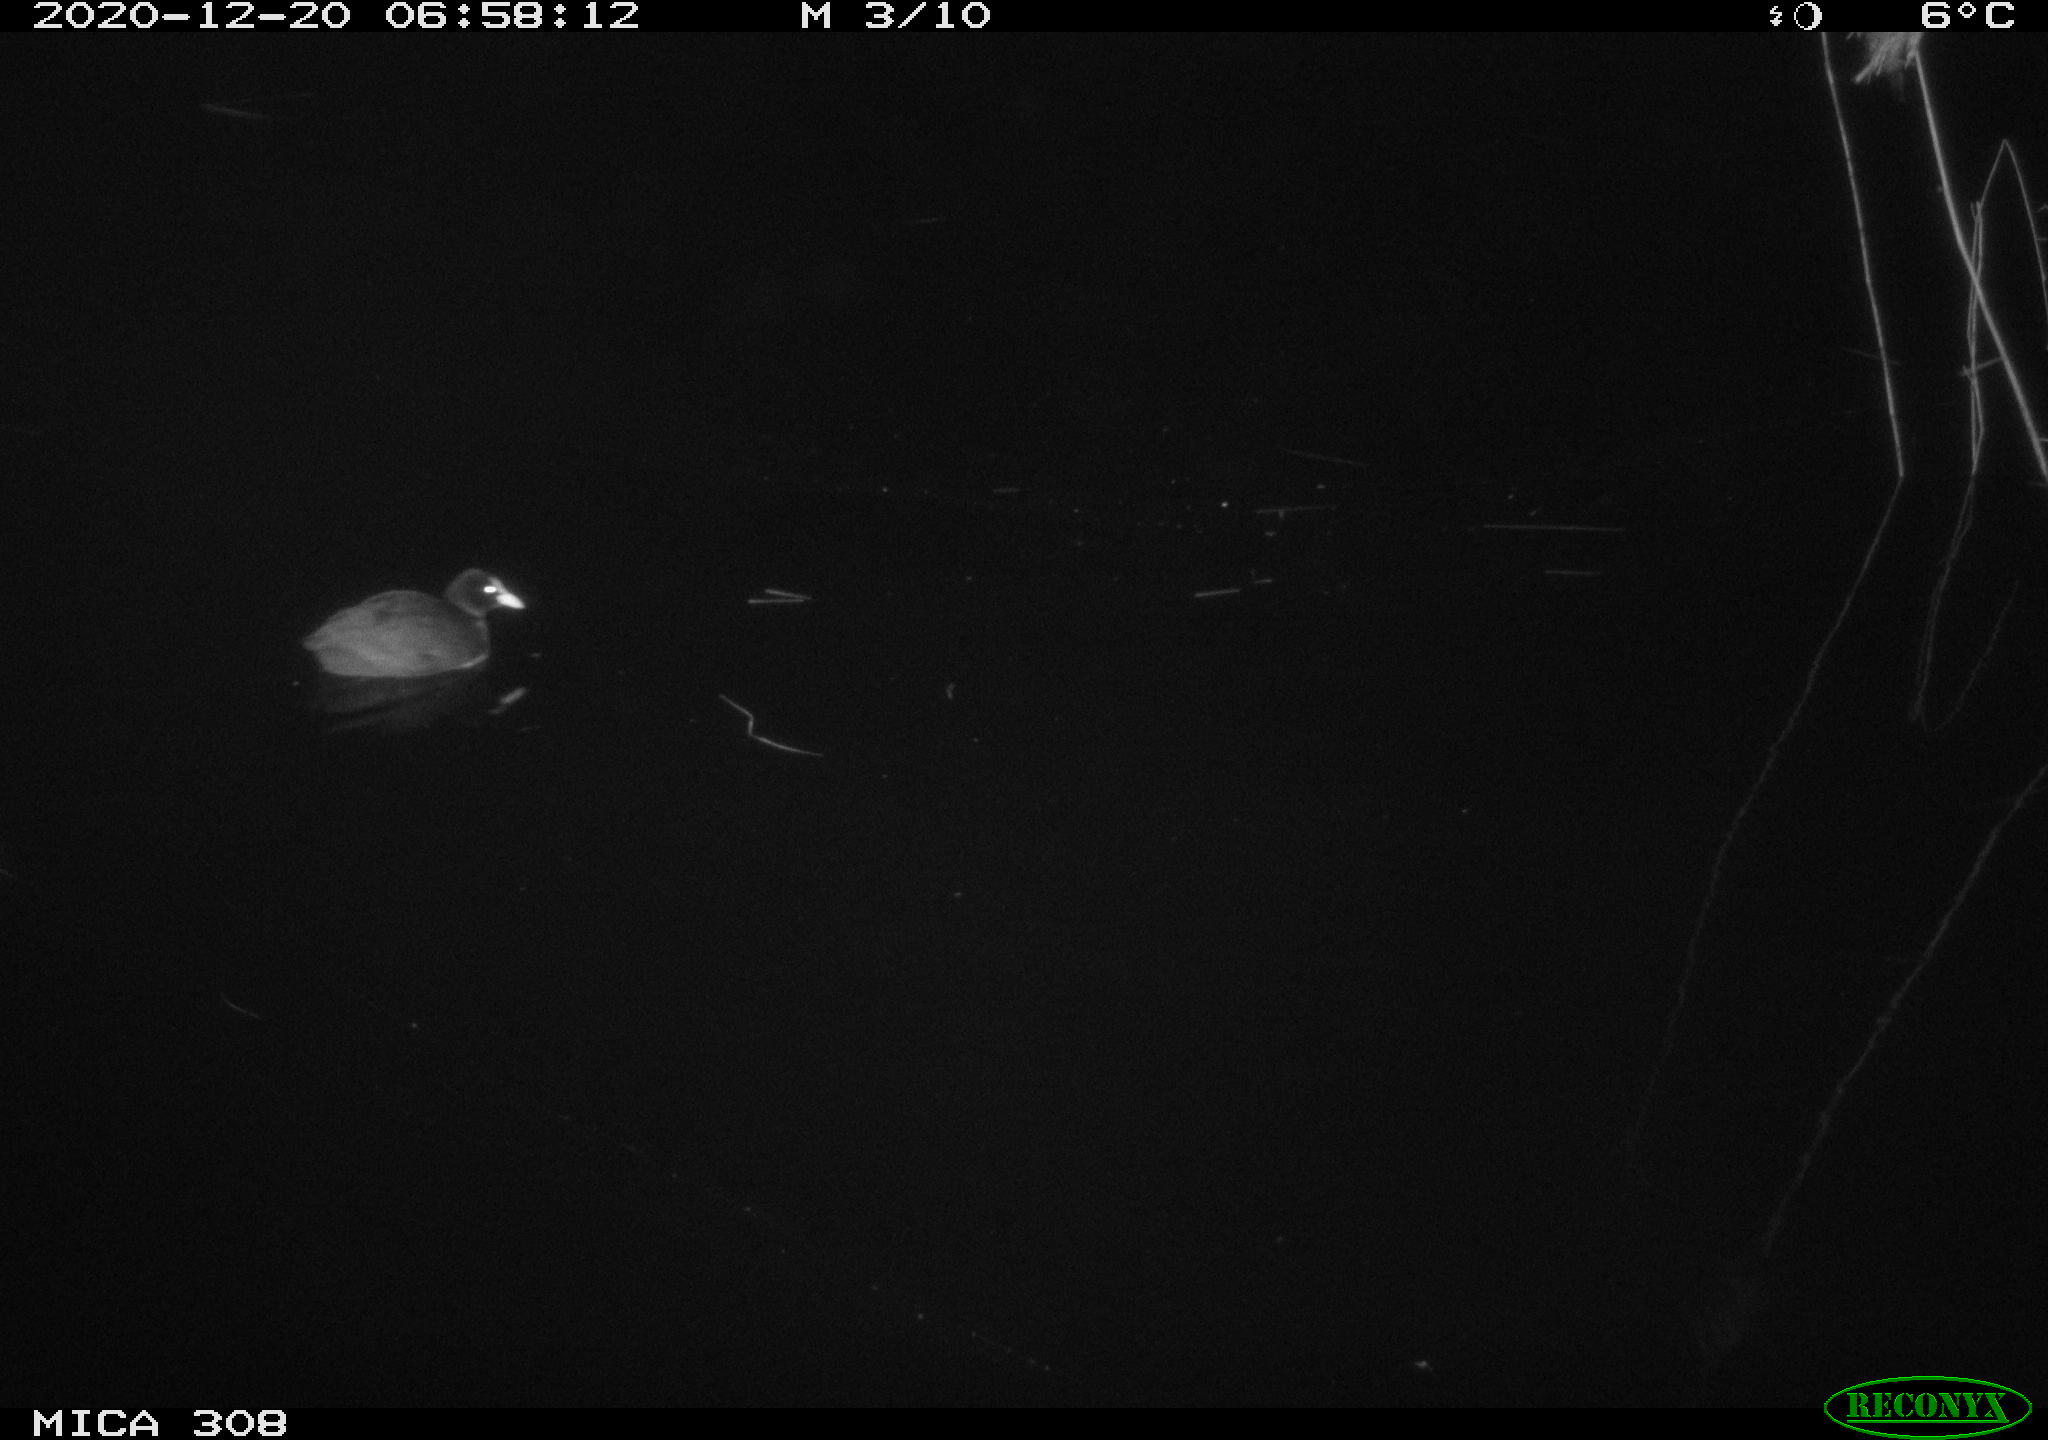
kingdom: Animalia
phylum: Chordata
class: Mammalia
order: Rodentia
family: Muridae
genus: Rattus
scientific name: Rattus norvegicus
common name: Brown rat
